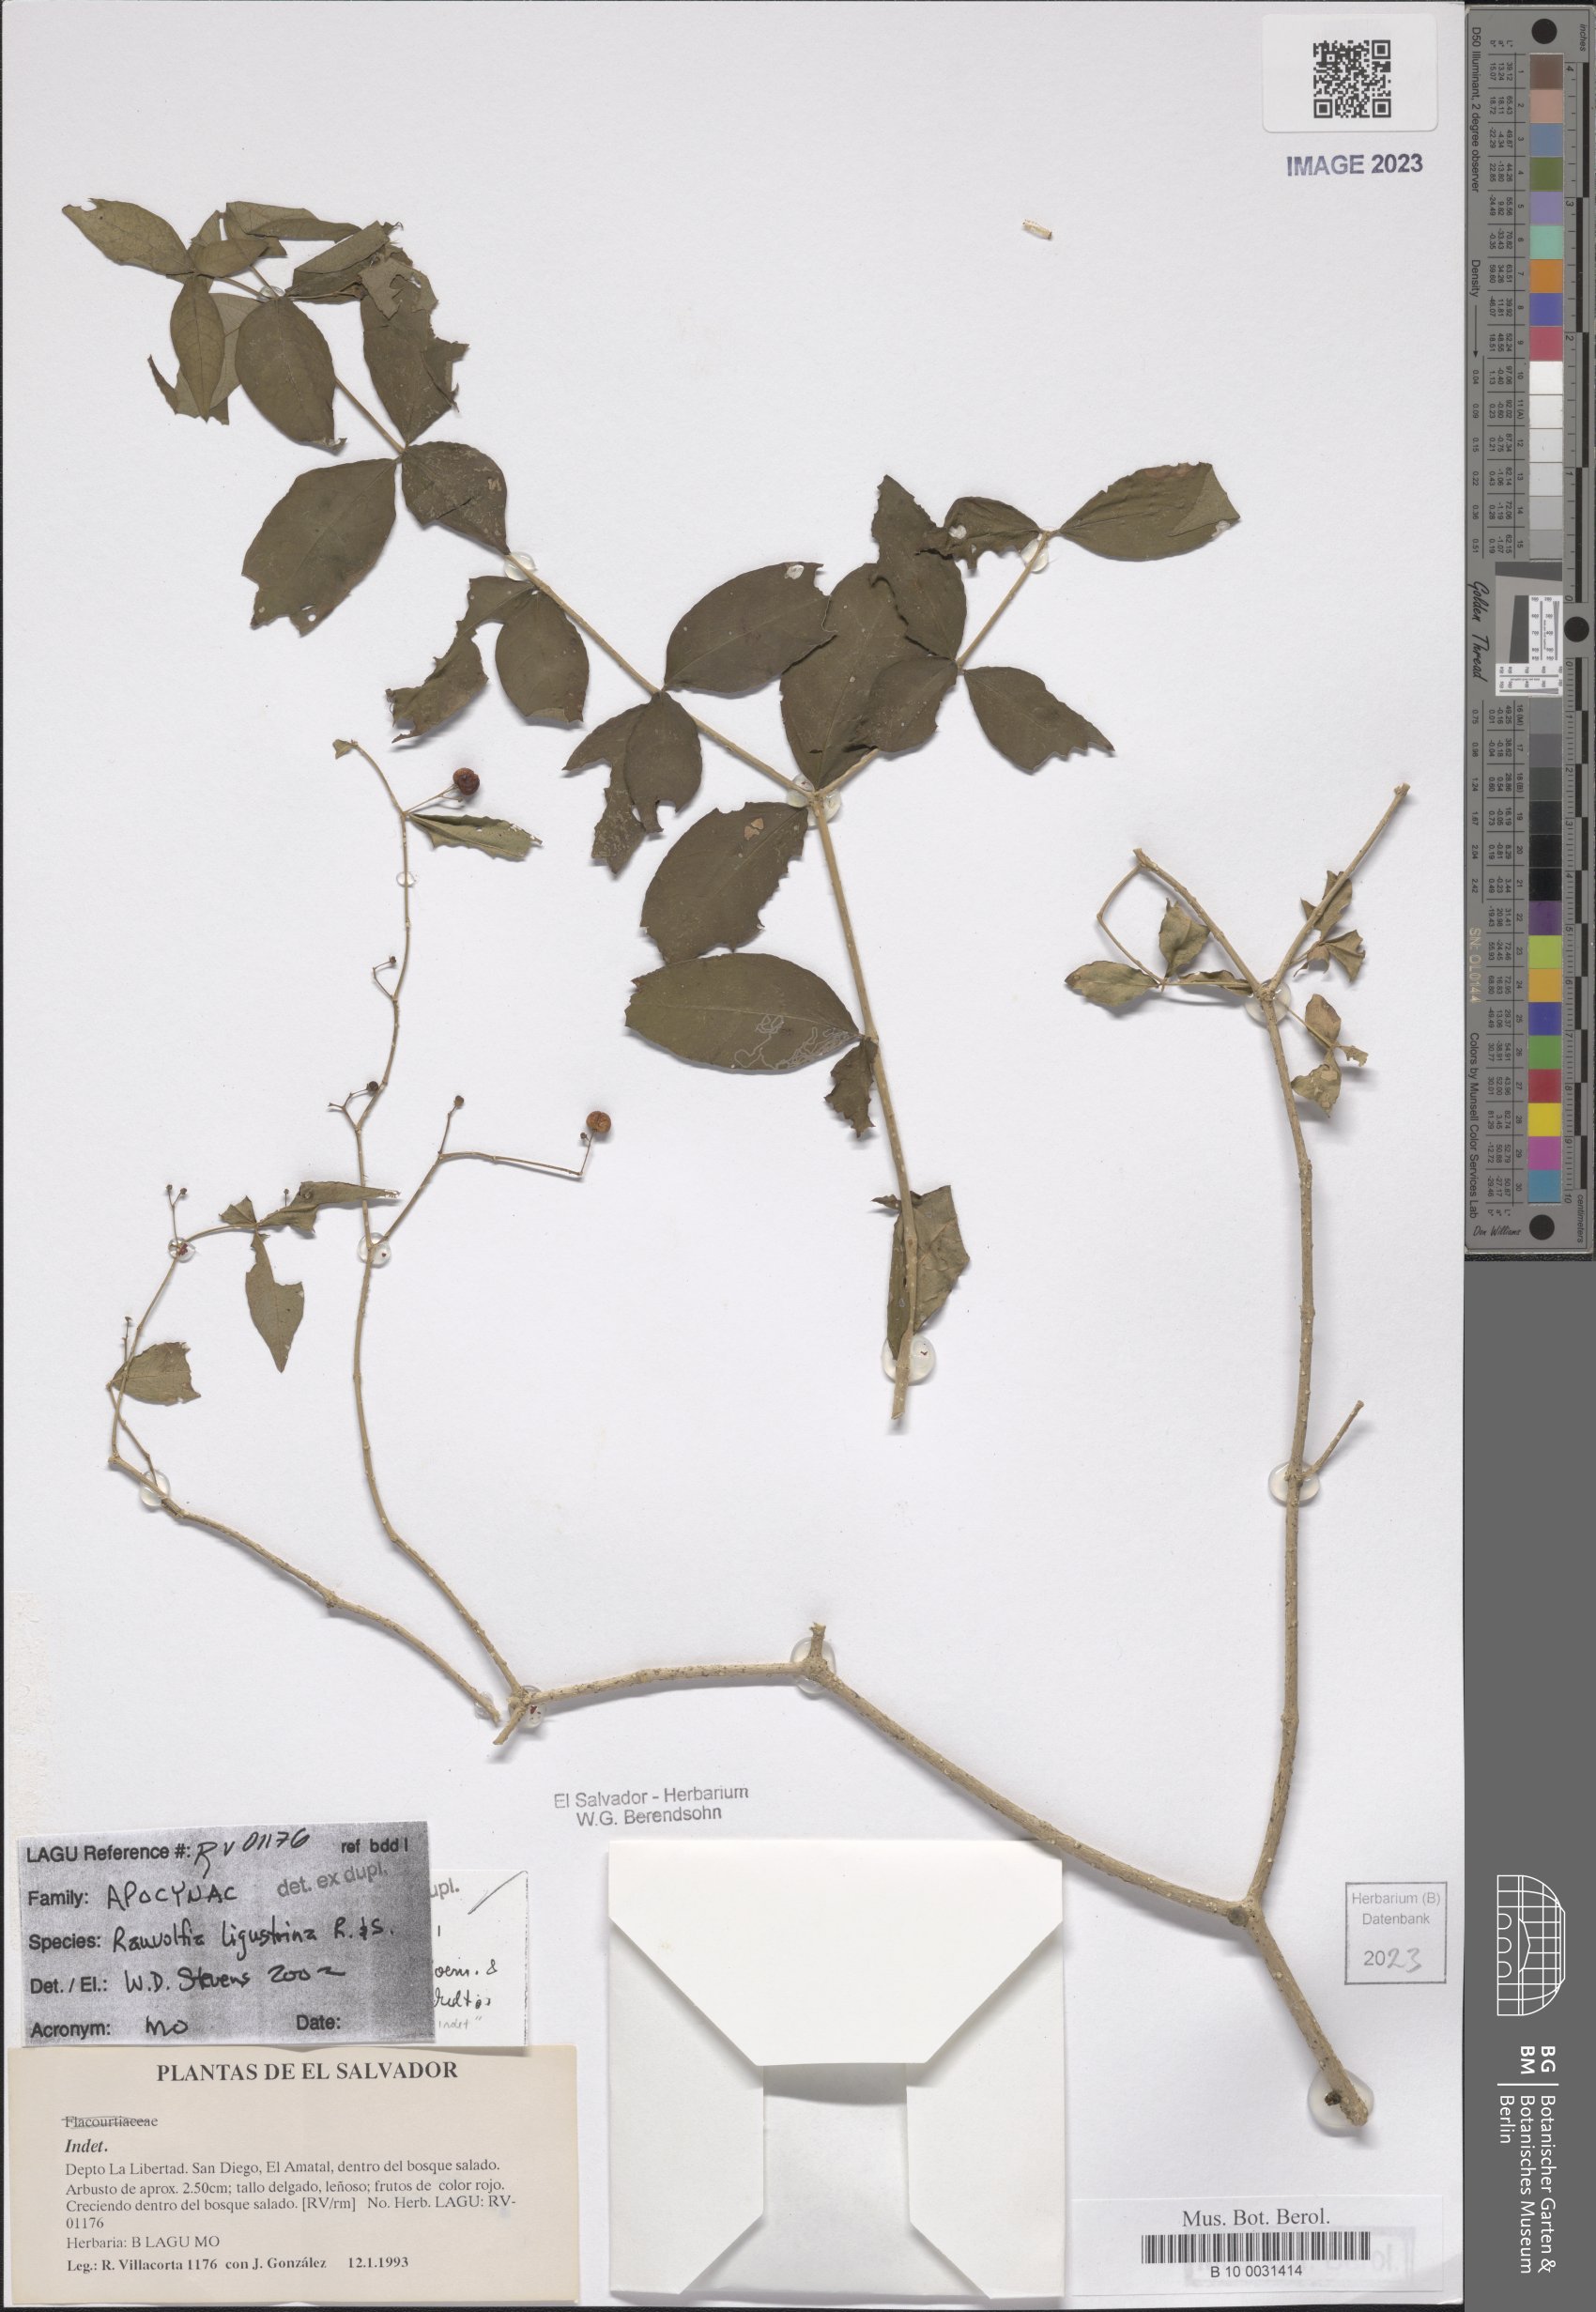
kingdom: Plantae
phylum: Tracheophyta
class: Magnoliopsida
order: Gentianales
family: Apocynaceae
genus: Rauvolfia
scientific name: Rauvolfia ligustrina
